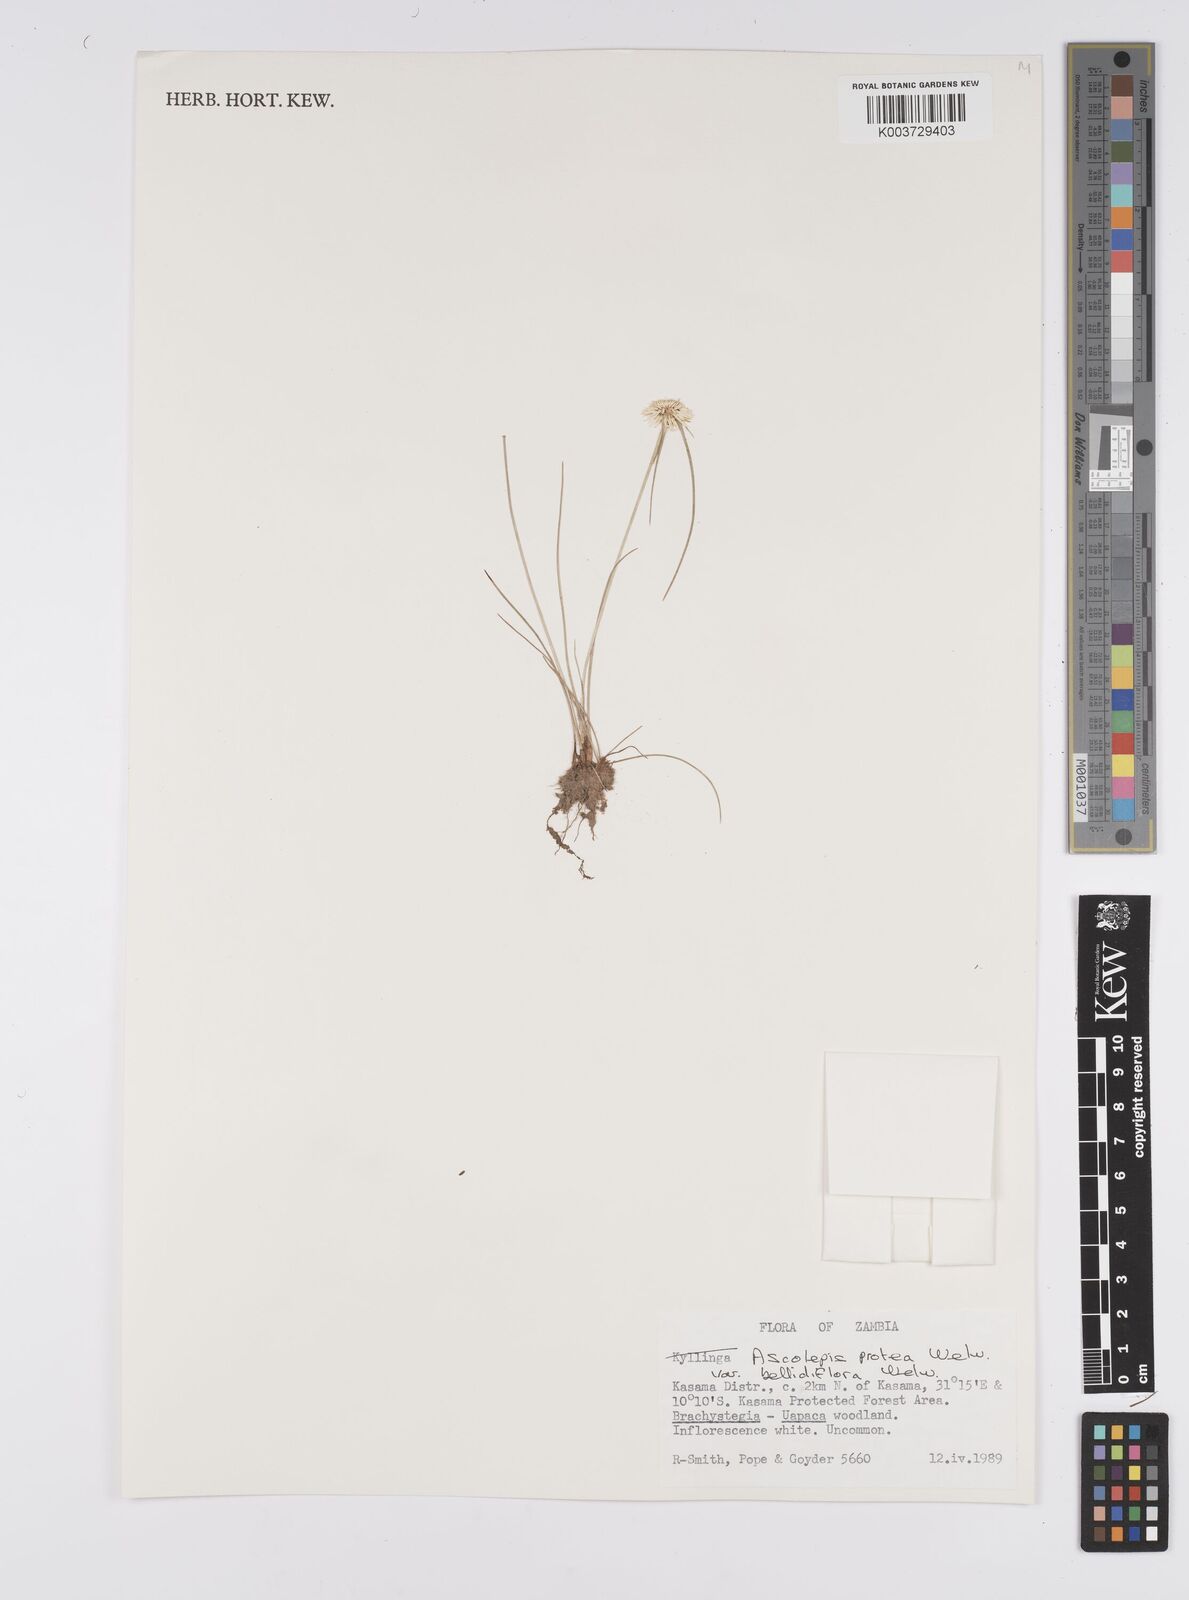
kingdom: Plantae
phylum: Tracheophyta
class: Liliopsida
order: Poales
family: Cyperaceae
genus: Cyperus
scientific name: Cyperus proteus
